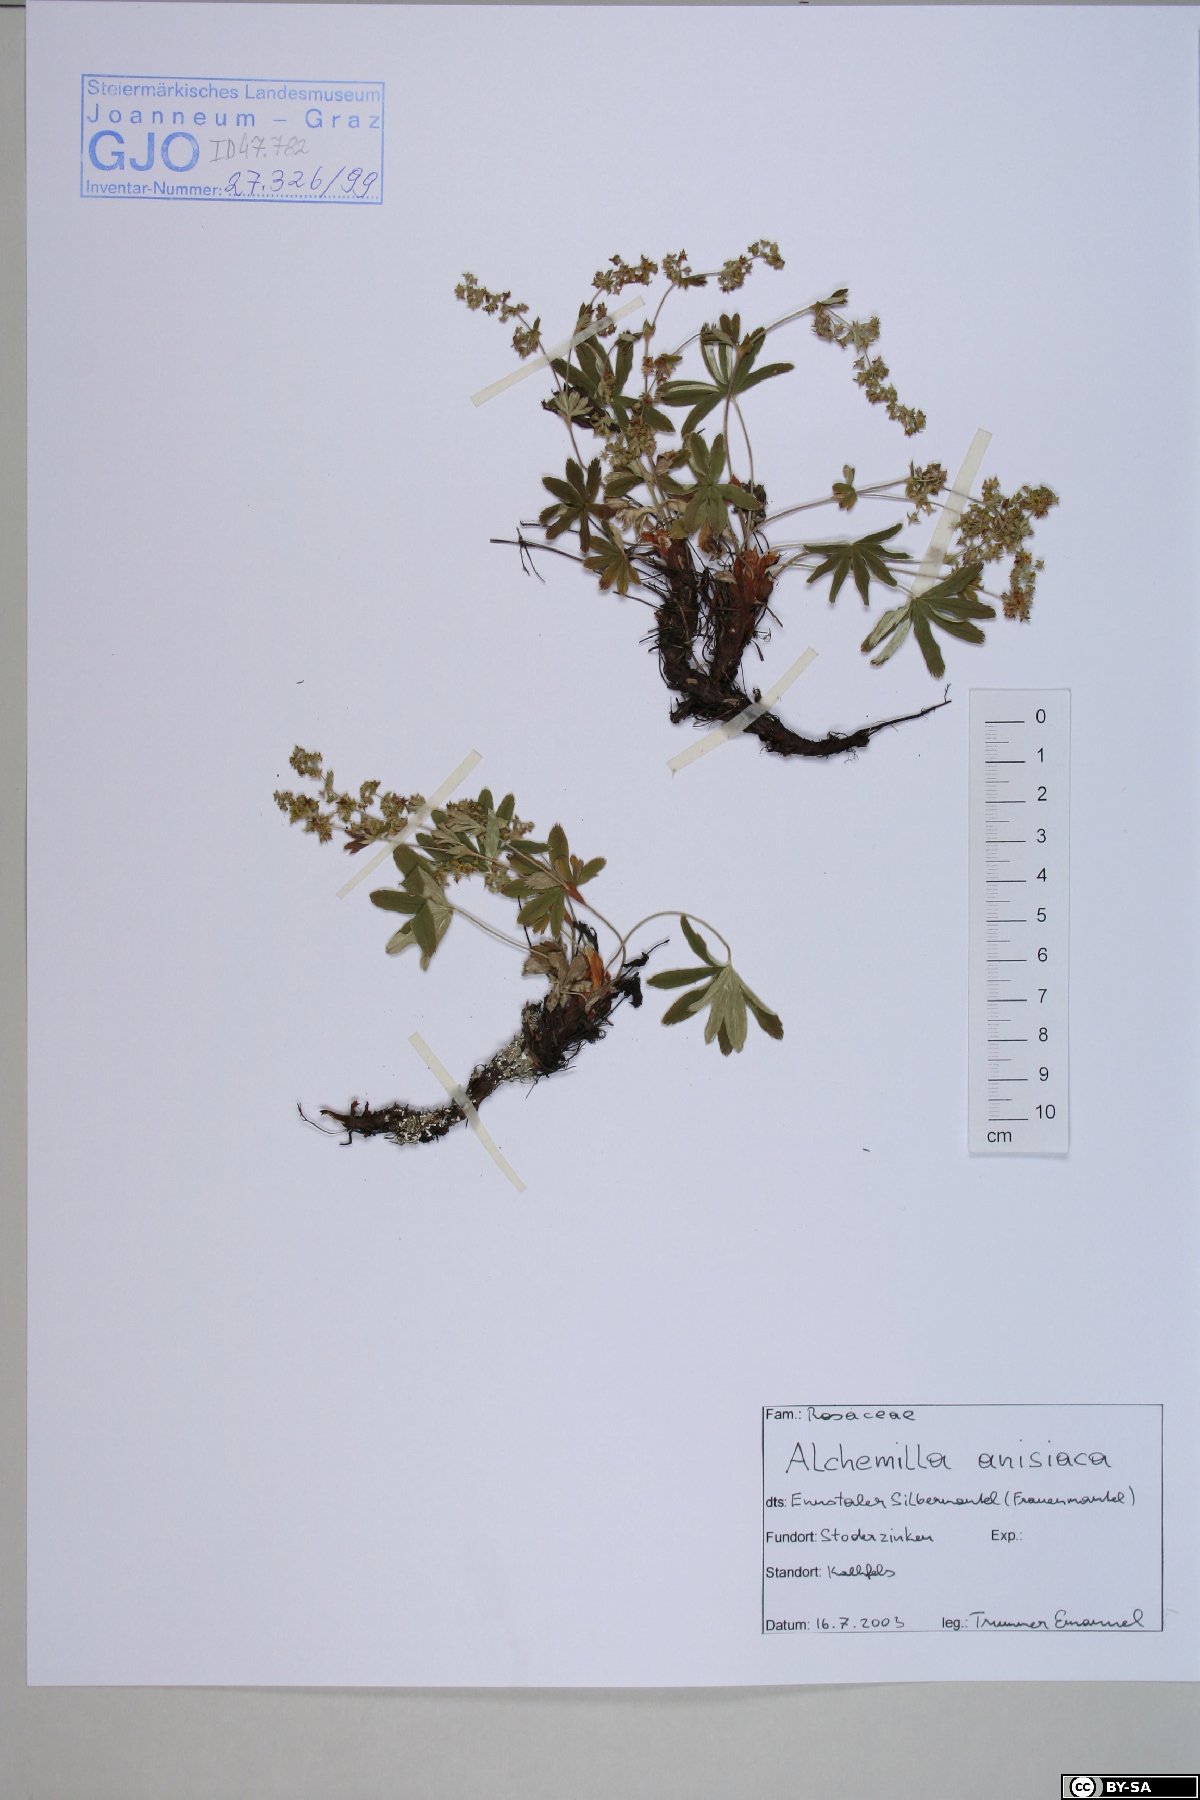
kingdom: Plantae
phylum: Tracheophyta
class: Magnoliopsida
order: Rosales
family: Rosaceae
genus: Alchemilla
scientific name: Alchemilla anisiaca
